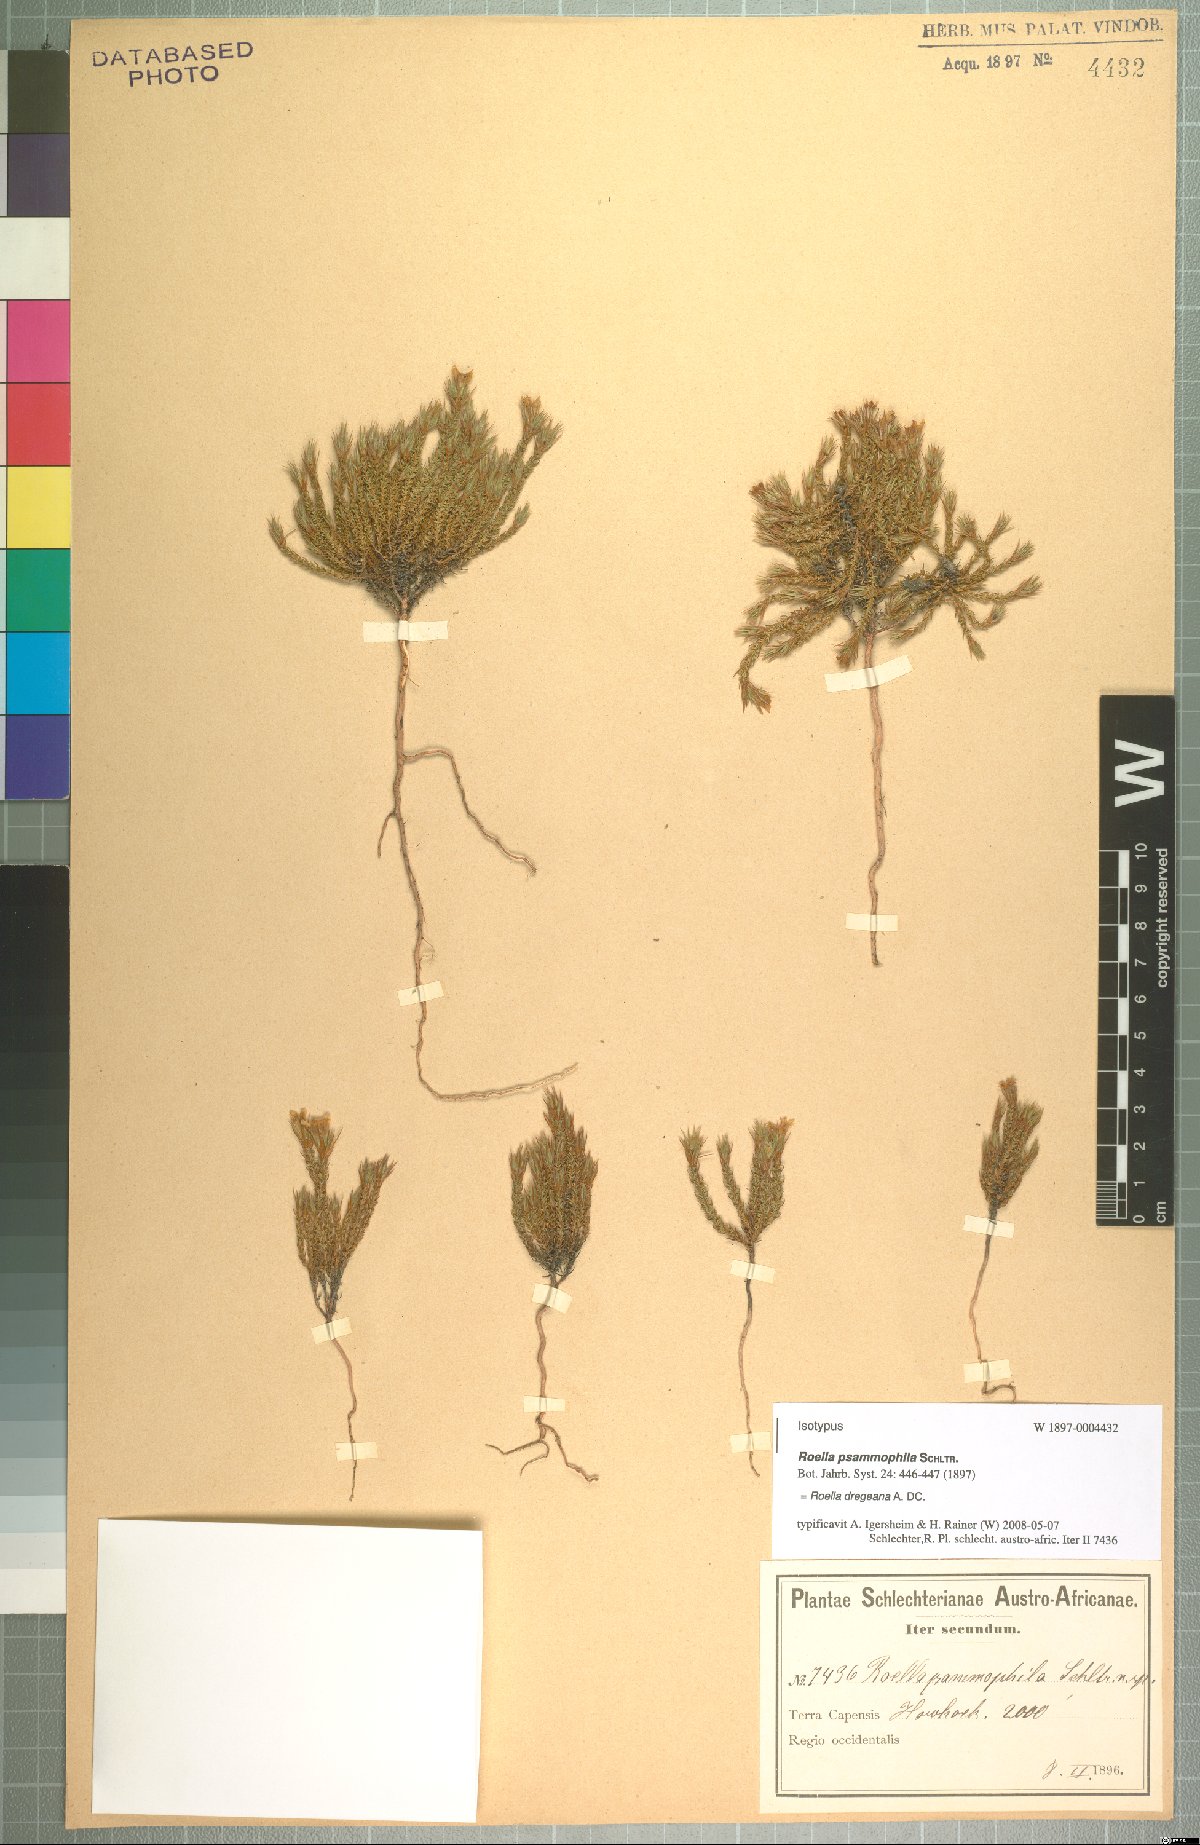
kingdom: Plantae
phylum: Tracheophyta
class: Magnoliopsida
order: Asterales
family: Campanulaceae
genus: Roella
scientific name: Roella dregeana
